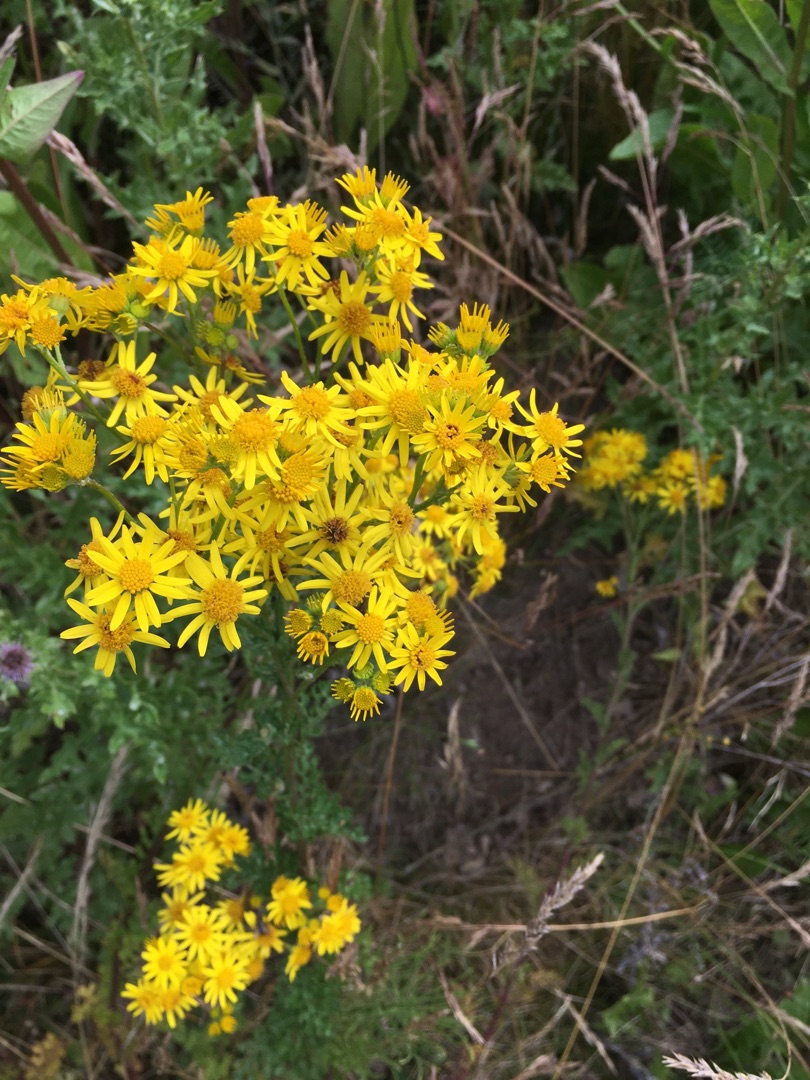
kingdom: Plantae
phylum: Tracheophyta
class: Magnoliopsida
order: Asterales
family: Asteraceae
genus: Jacobaea
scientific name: Jacobaea vulgaris
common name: Eng-brandbæger
